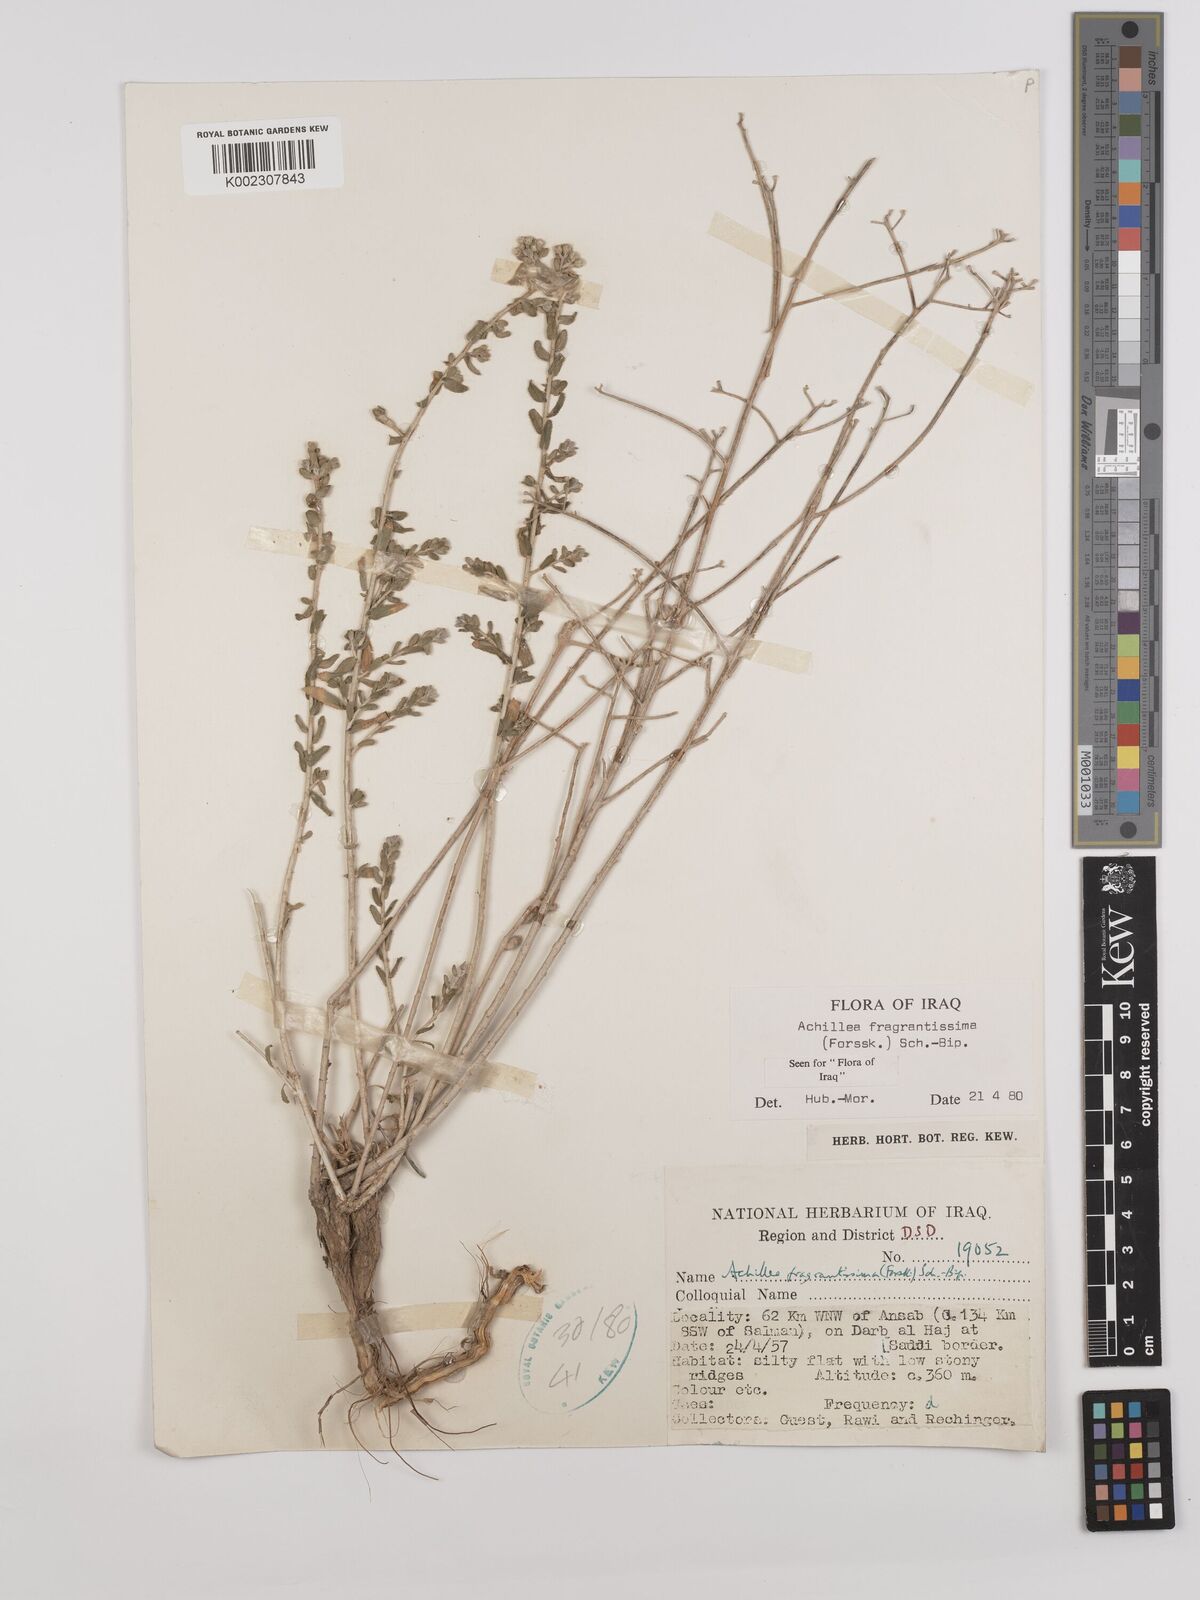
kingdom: Plantae
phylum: Tracheophyta
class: Magnoliopsida
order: Asterales
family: Asteraceae
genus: Achillea
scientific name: Achillea fragrantissima
